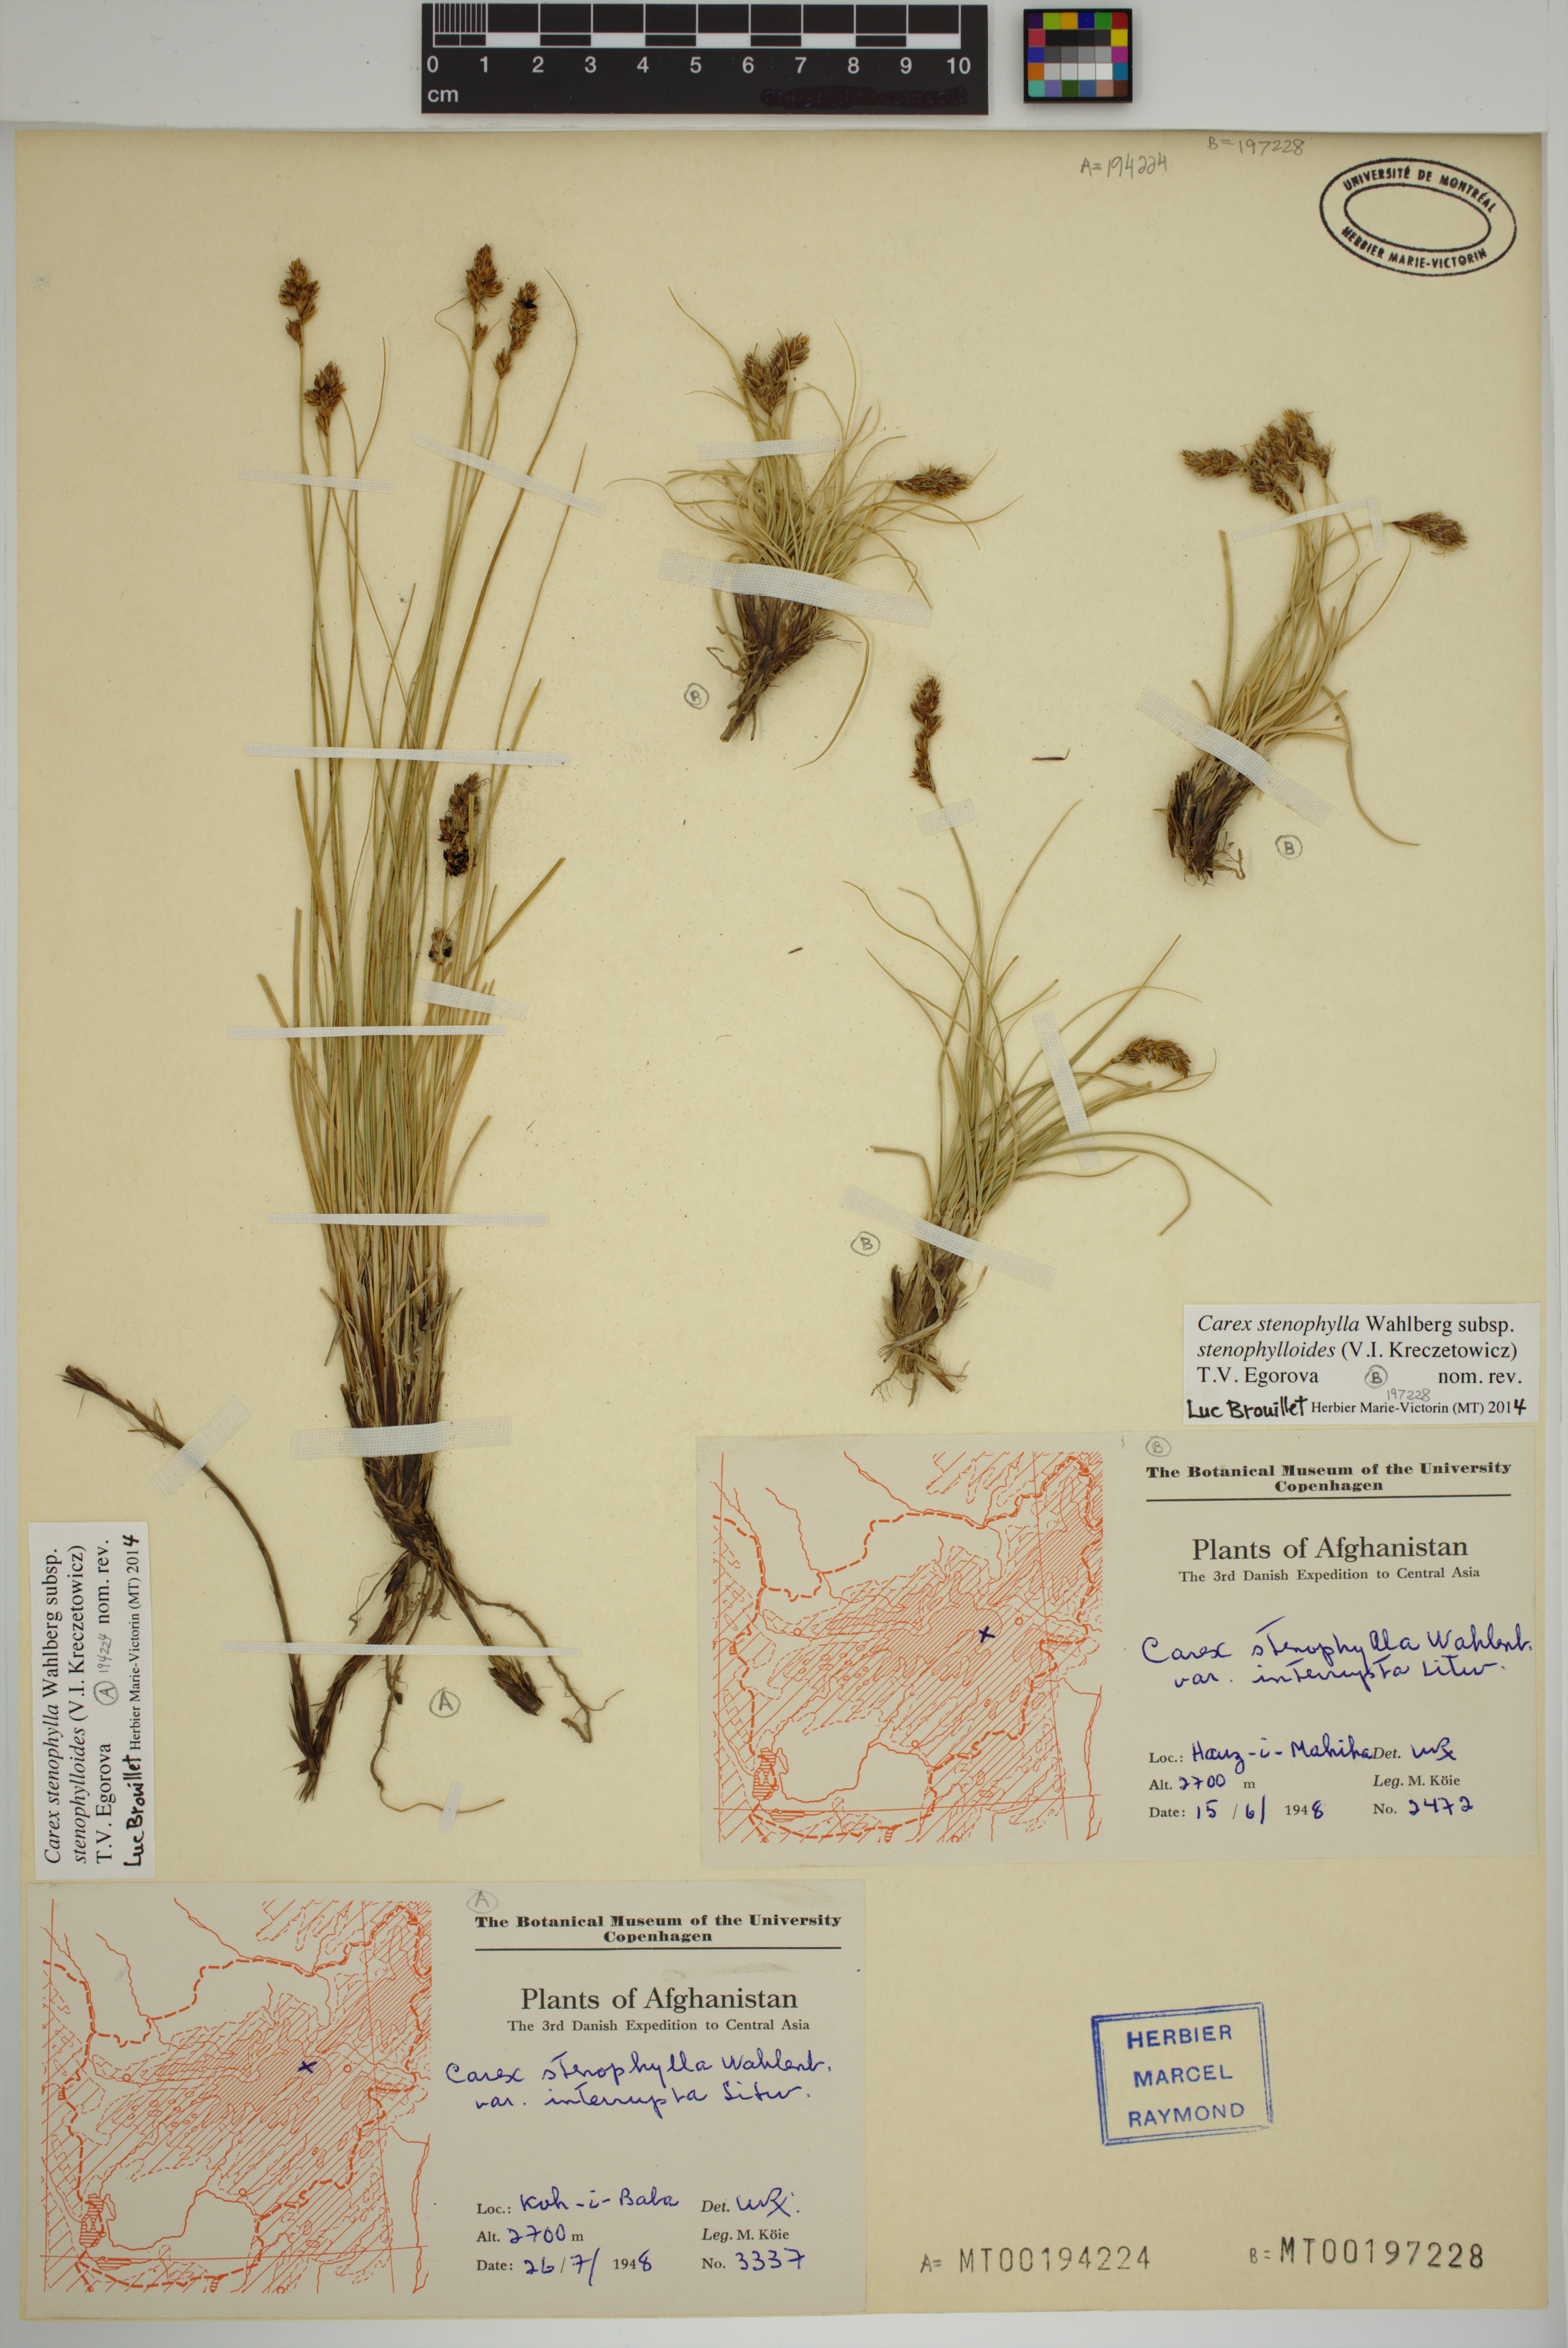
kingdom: Plantae
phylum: Tracheophyta
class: Liliopsida
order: Poales
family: Cyperaceae
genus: Carex
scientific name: Carex stenophylla
